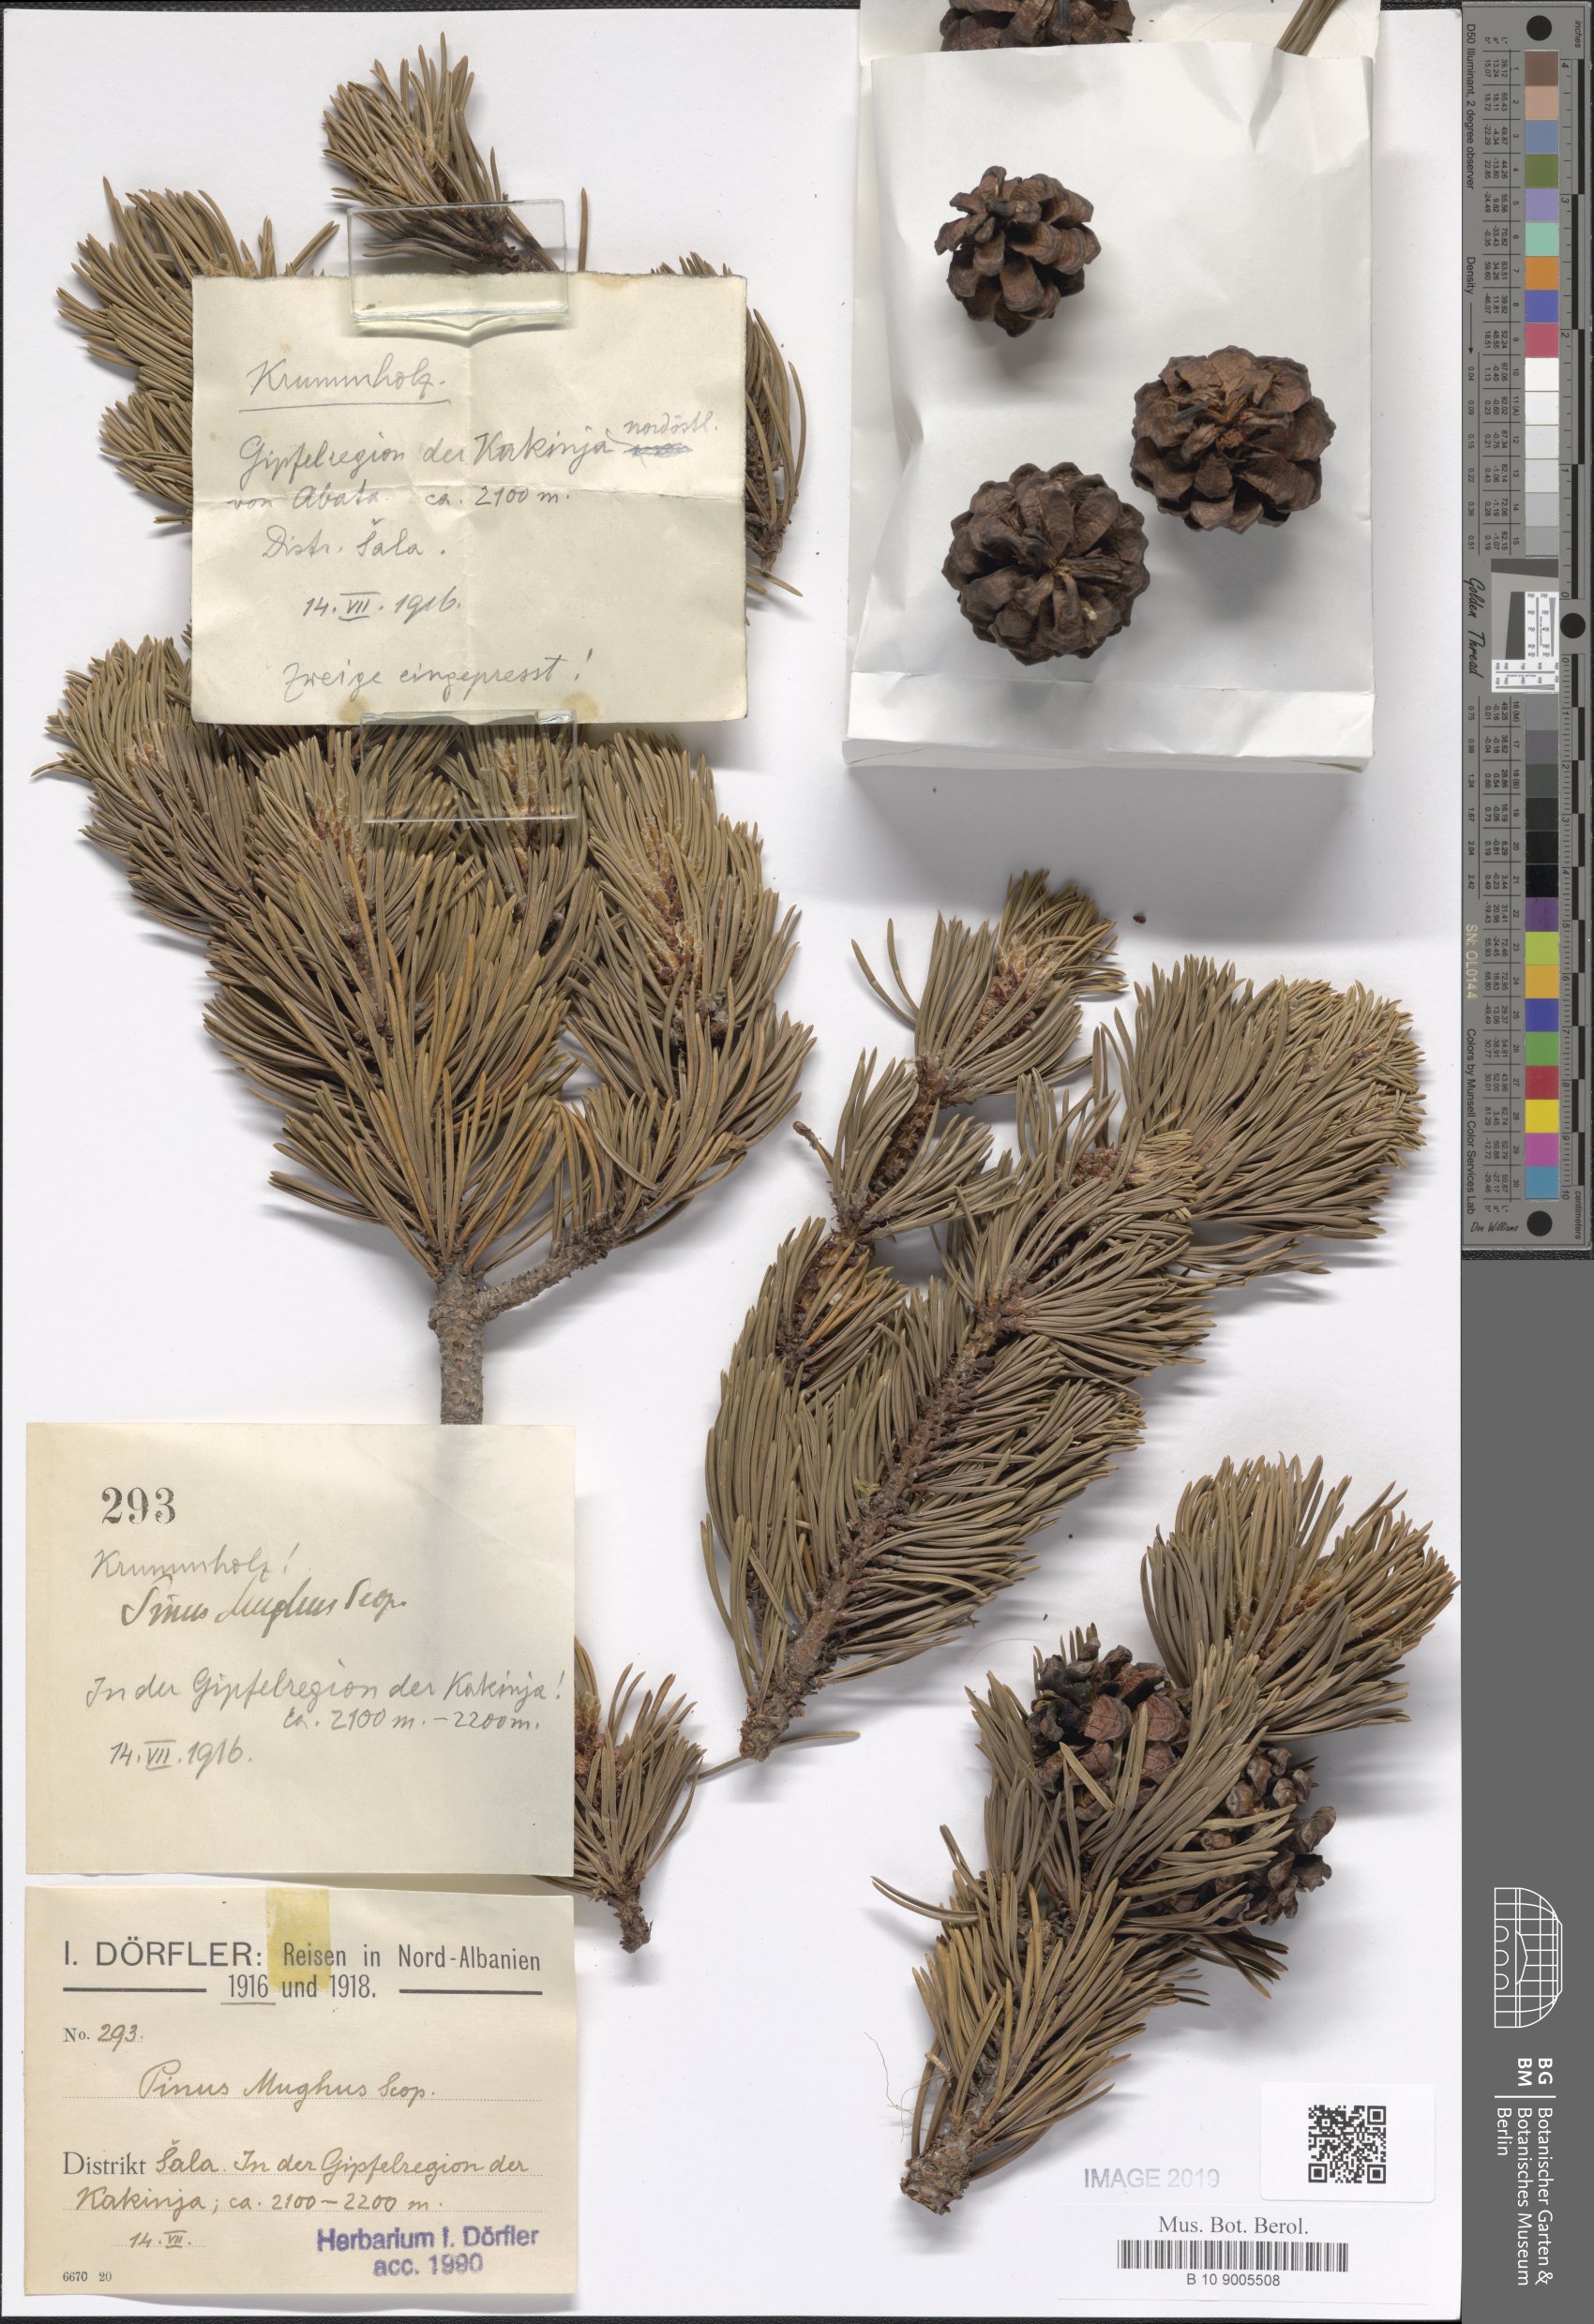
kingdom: Plantae
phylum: Tracheophyta
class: Pinopsida
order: Pinales
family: Pinaceae
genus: Pinus
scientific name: Pinus mugo
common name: Mugo pine
